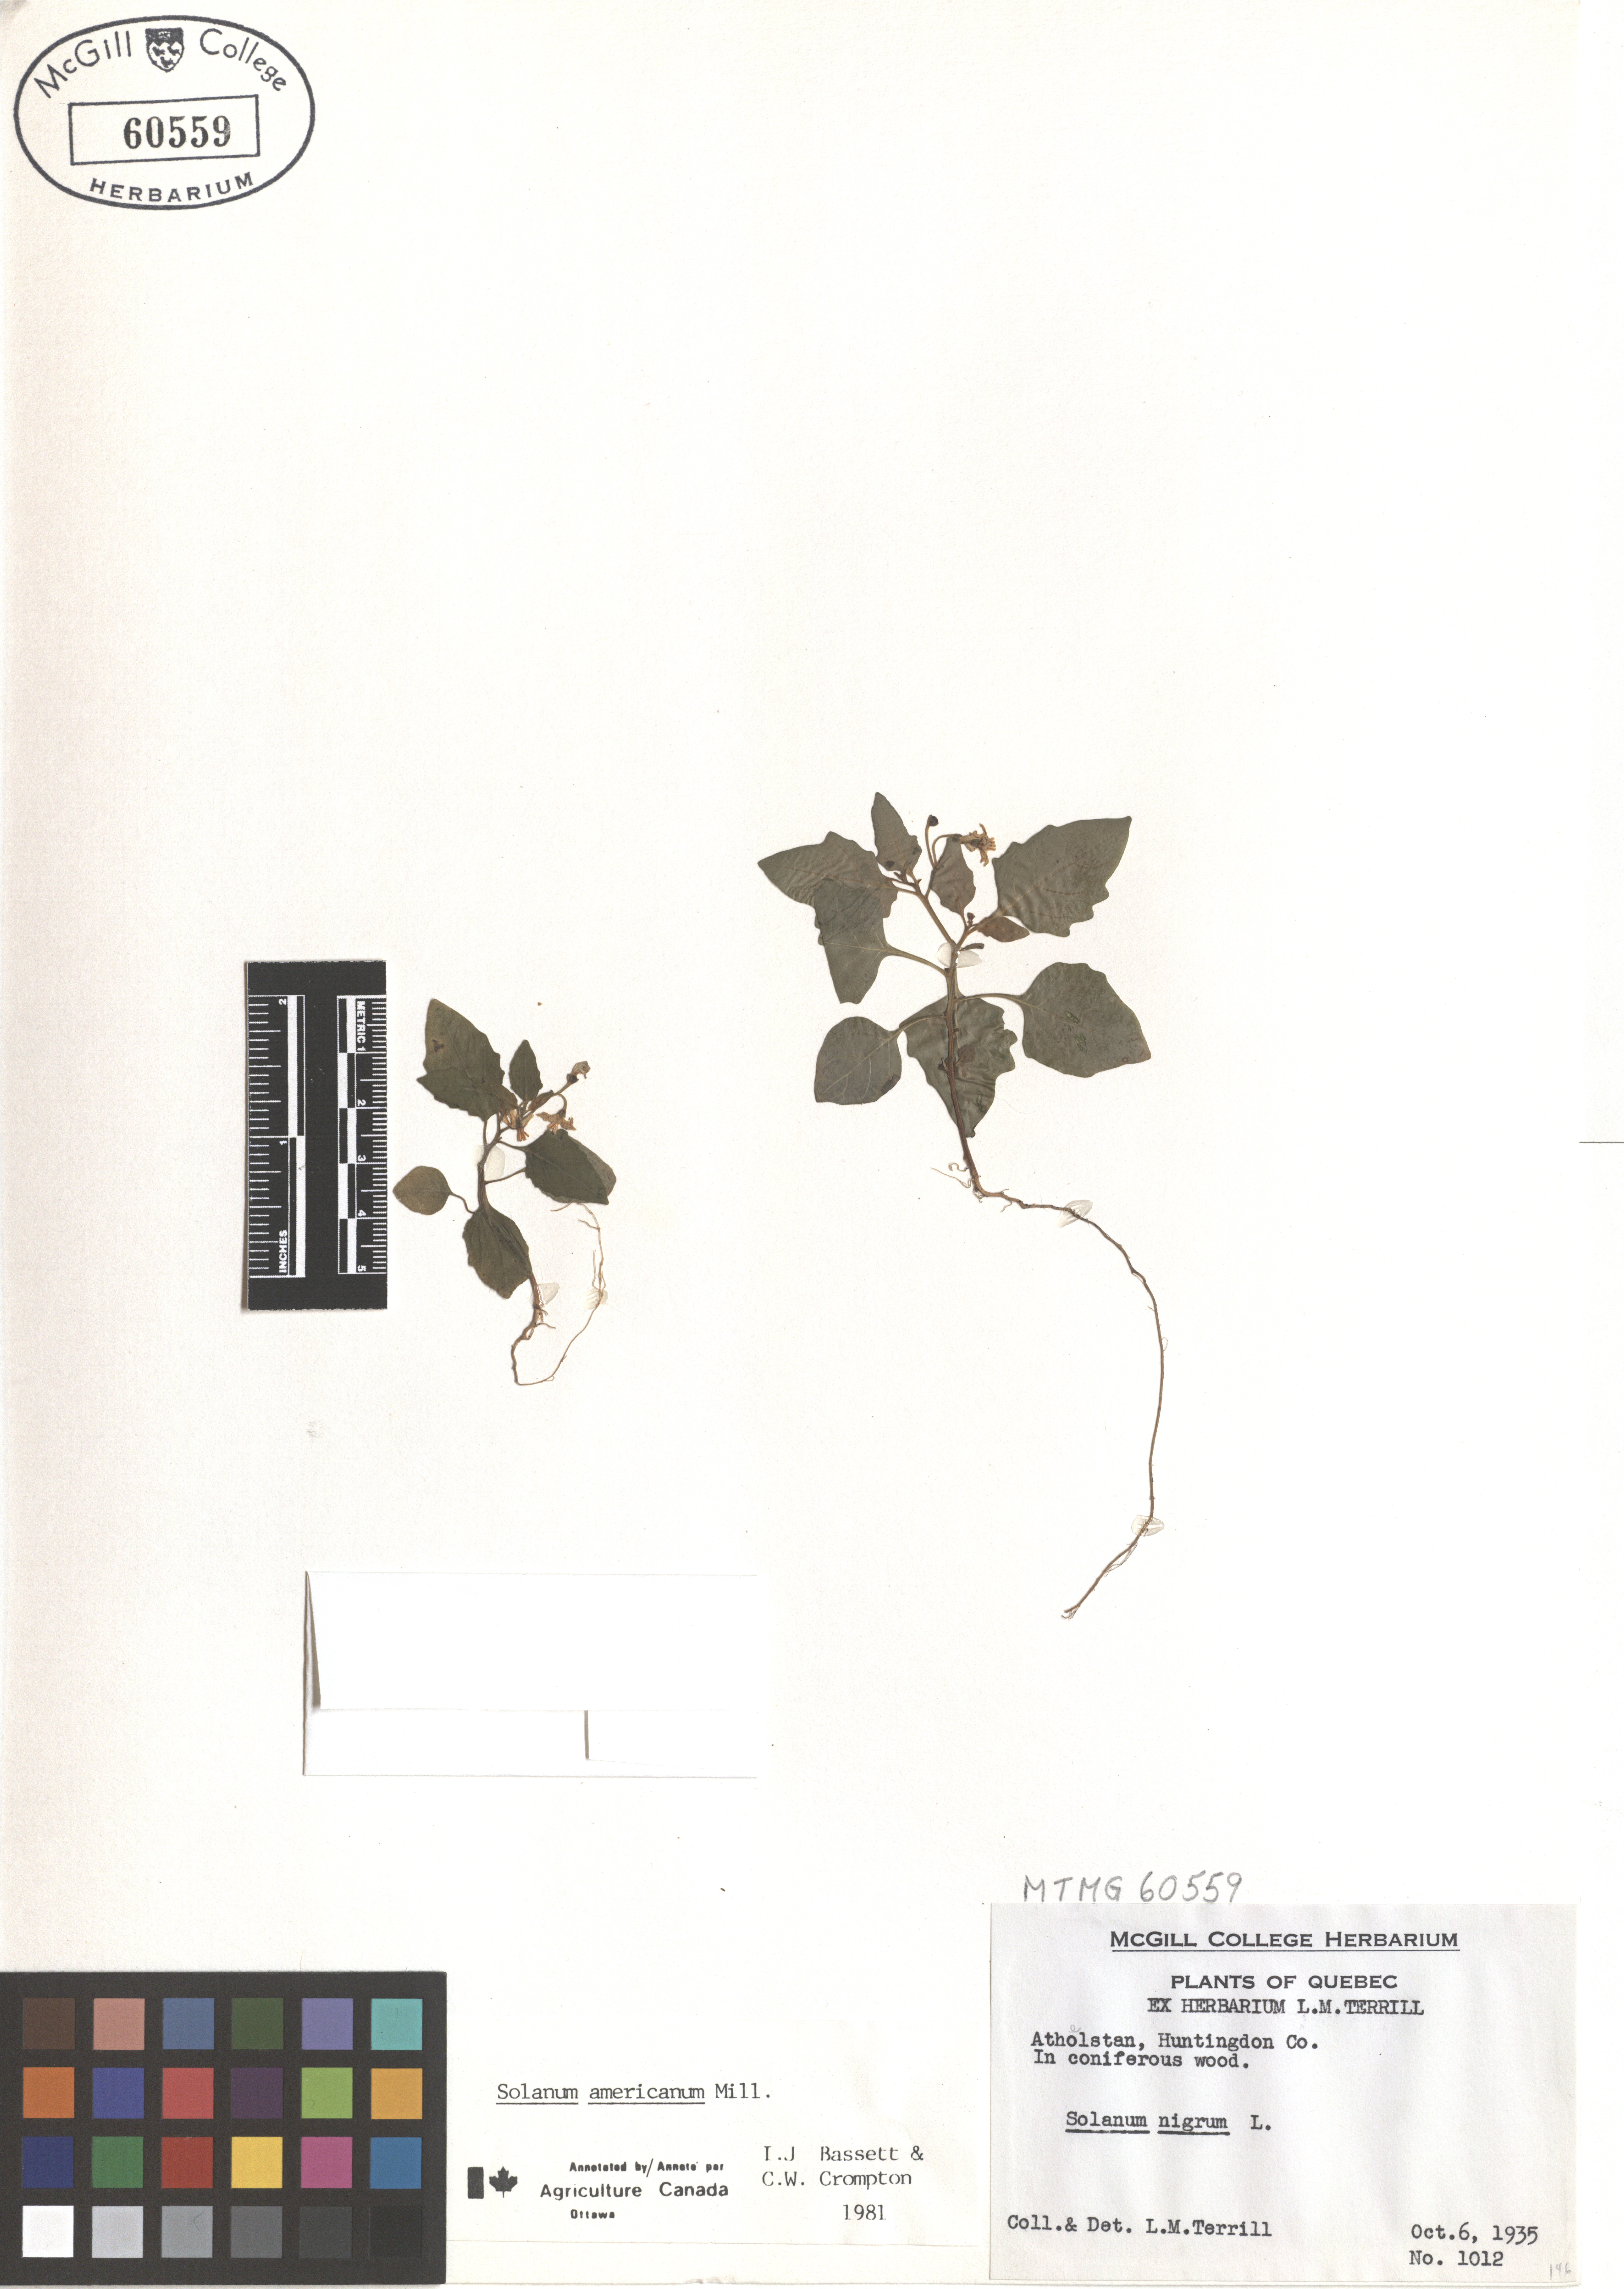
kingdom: Plantae
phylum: Tracheophyta
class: Magnoliopsida
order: Solanales
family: Solanaceae
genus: Solanum
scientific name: Solanum americanum
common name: American black nightshade
